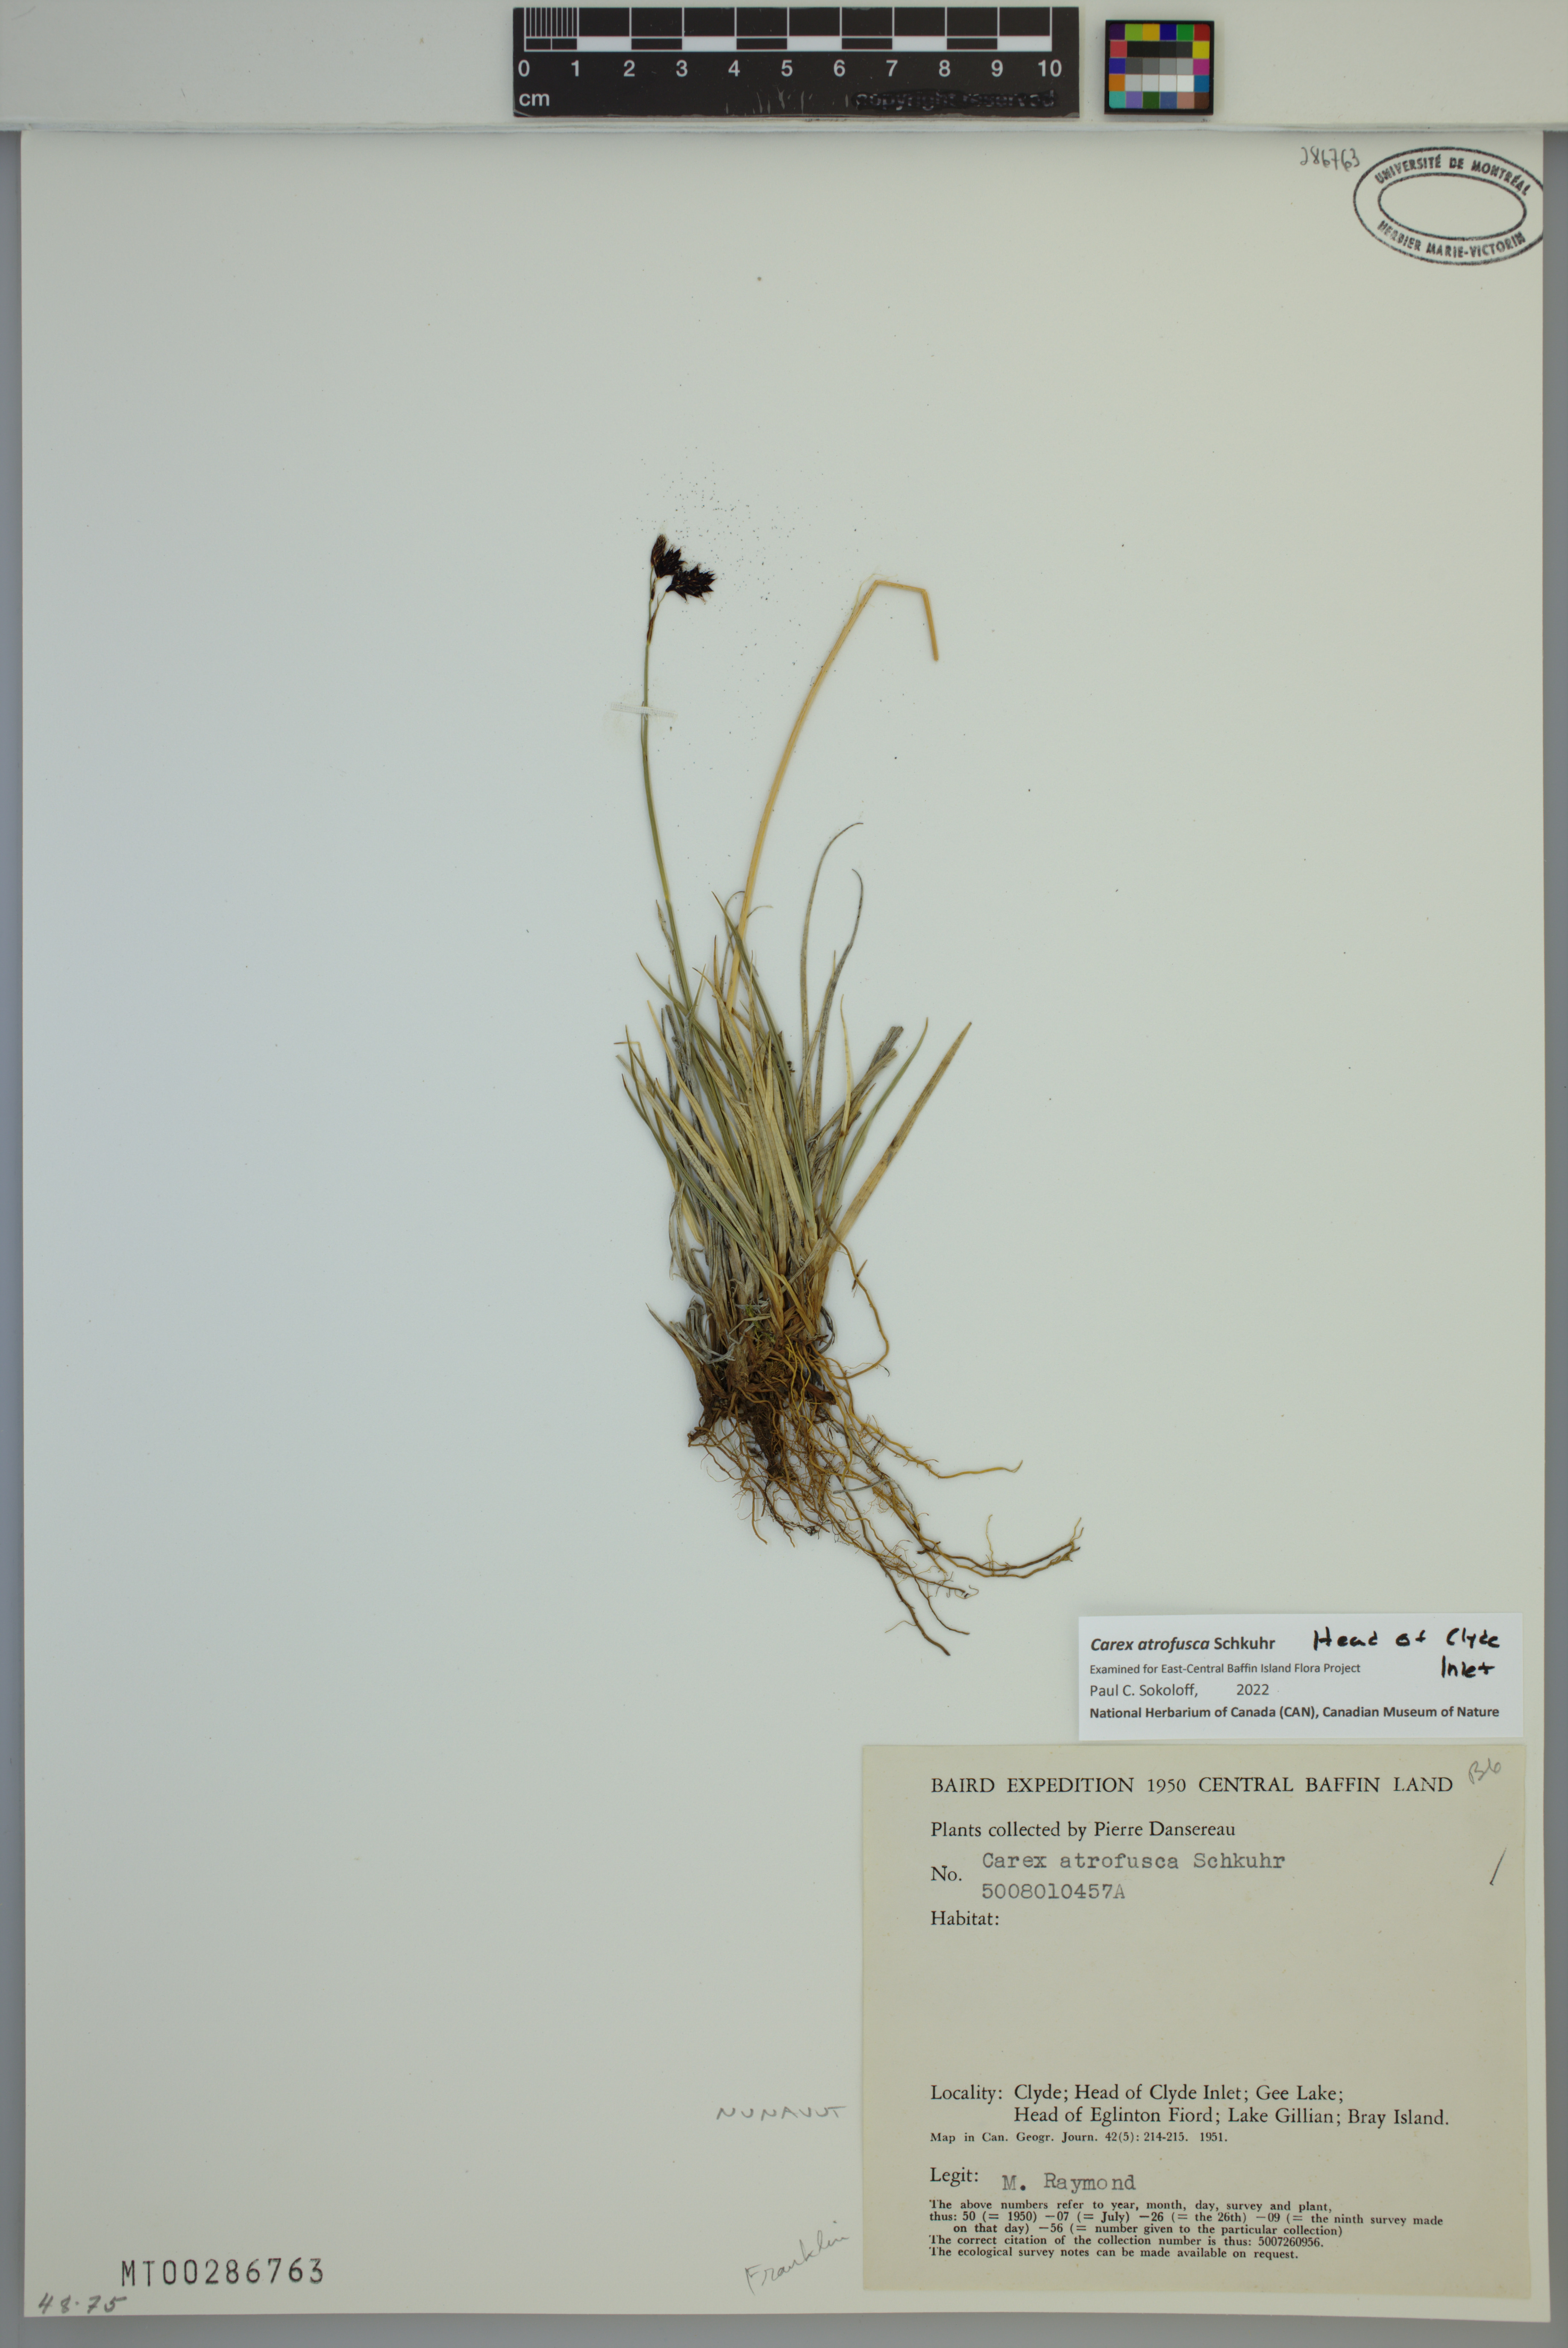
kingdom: Plantae
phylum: Tracheophyta
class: Liliopsida
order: Poales
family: Cyperaceae
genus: Carex
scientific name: Carex atrofusca
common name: Scorched alpine-sedge
